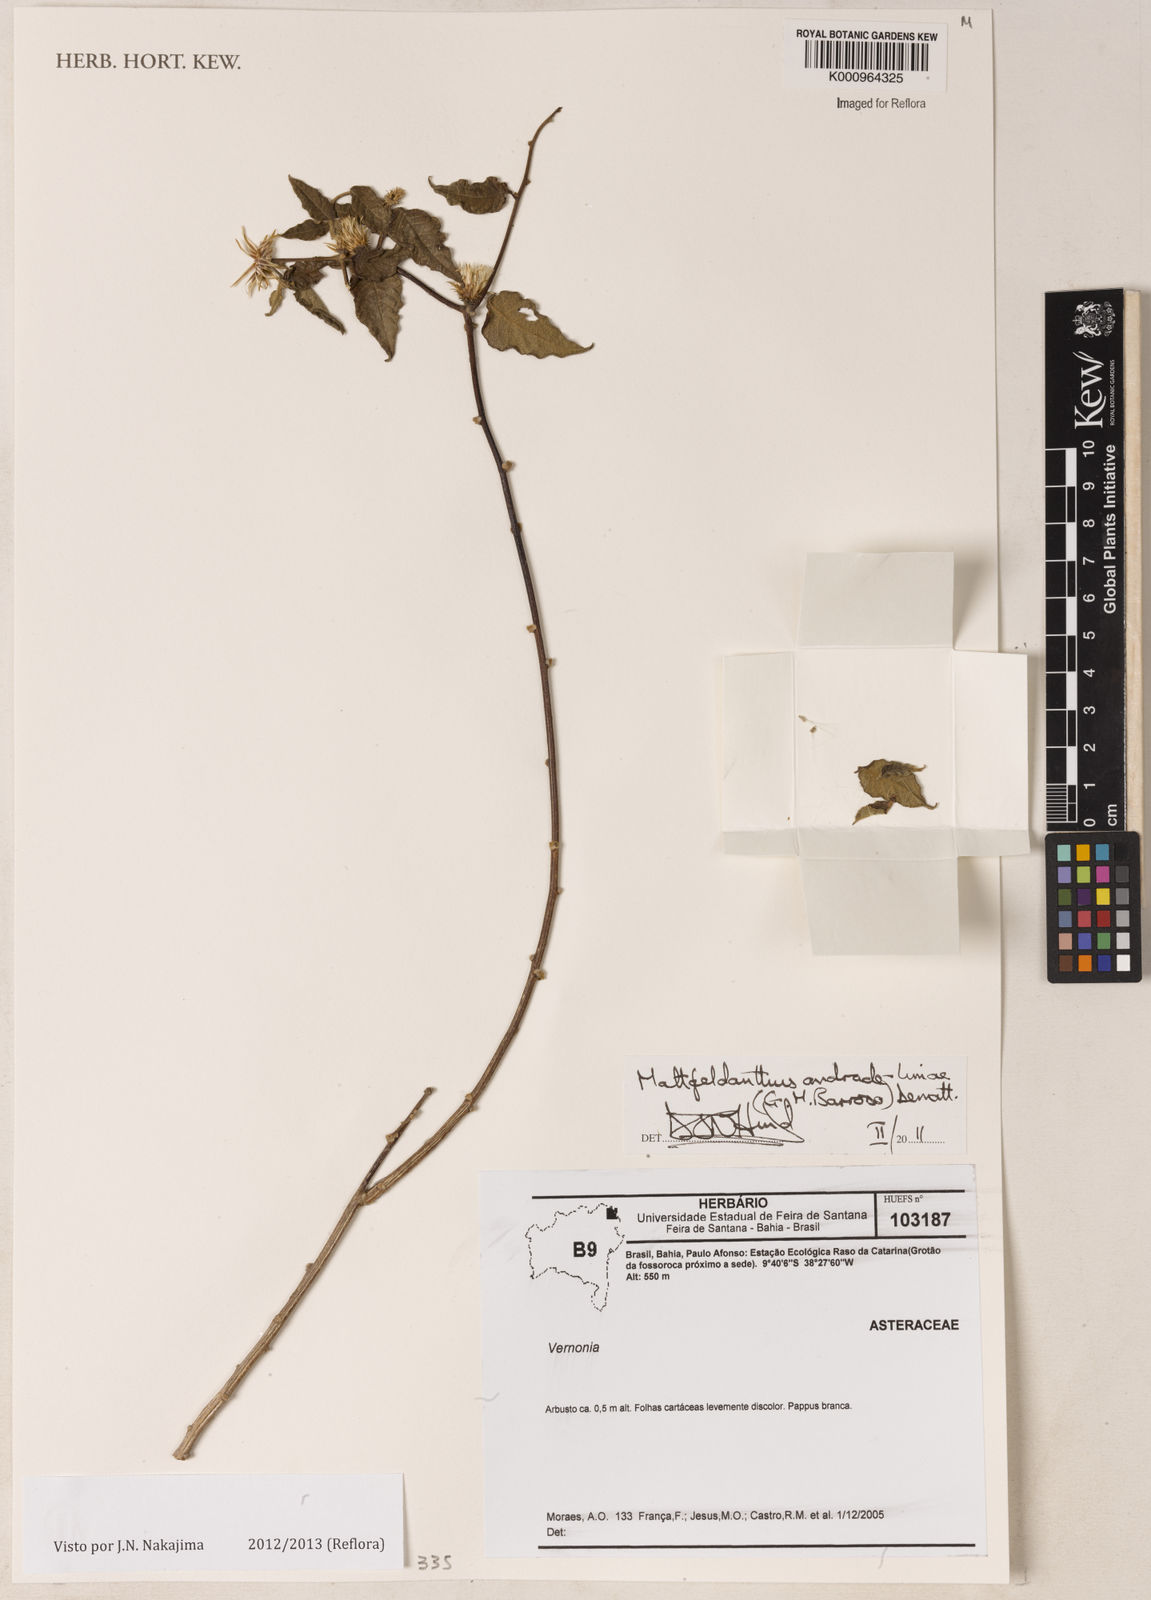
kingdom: Plantae
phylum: Tracheophyta
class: Magnoliopsida
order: Asterales
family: Asteraceae
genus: Mattfeldanthus
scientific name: Mattfeldanthus andrade-limae
